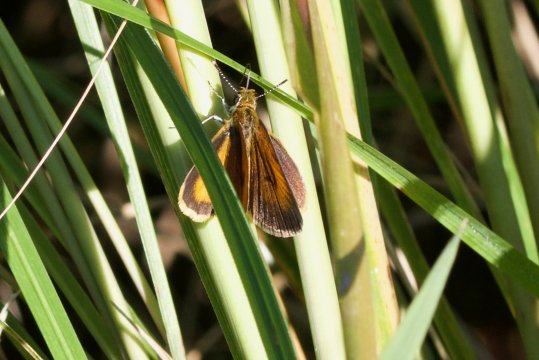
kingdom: Animalia
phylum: Arthropoda
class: Insecta
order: Lepidoptera
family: Hesperiidae
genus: Ancyloxypha
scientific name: Ancyloxypha numitor
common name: Least Skipper
